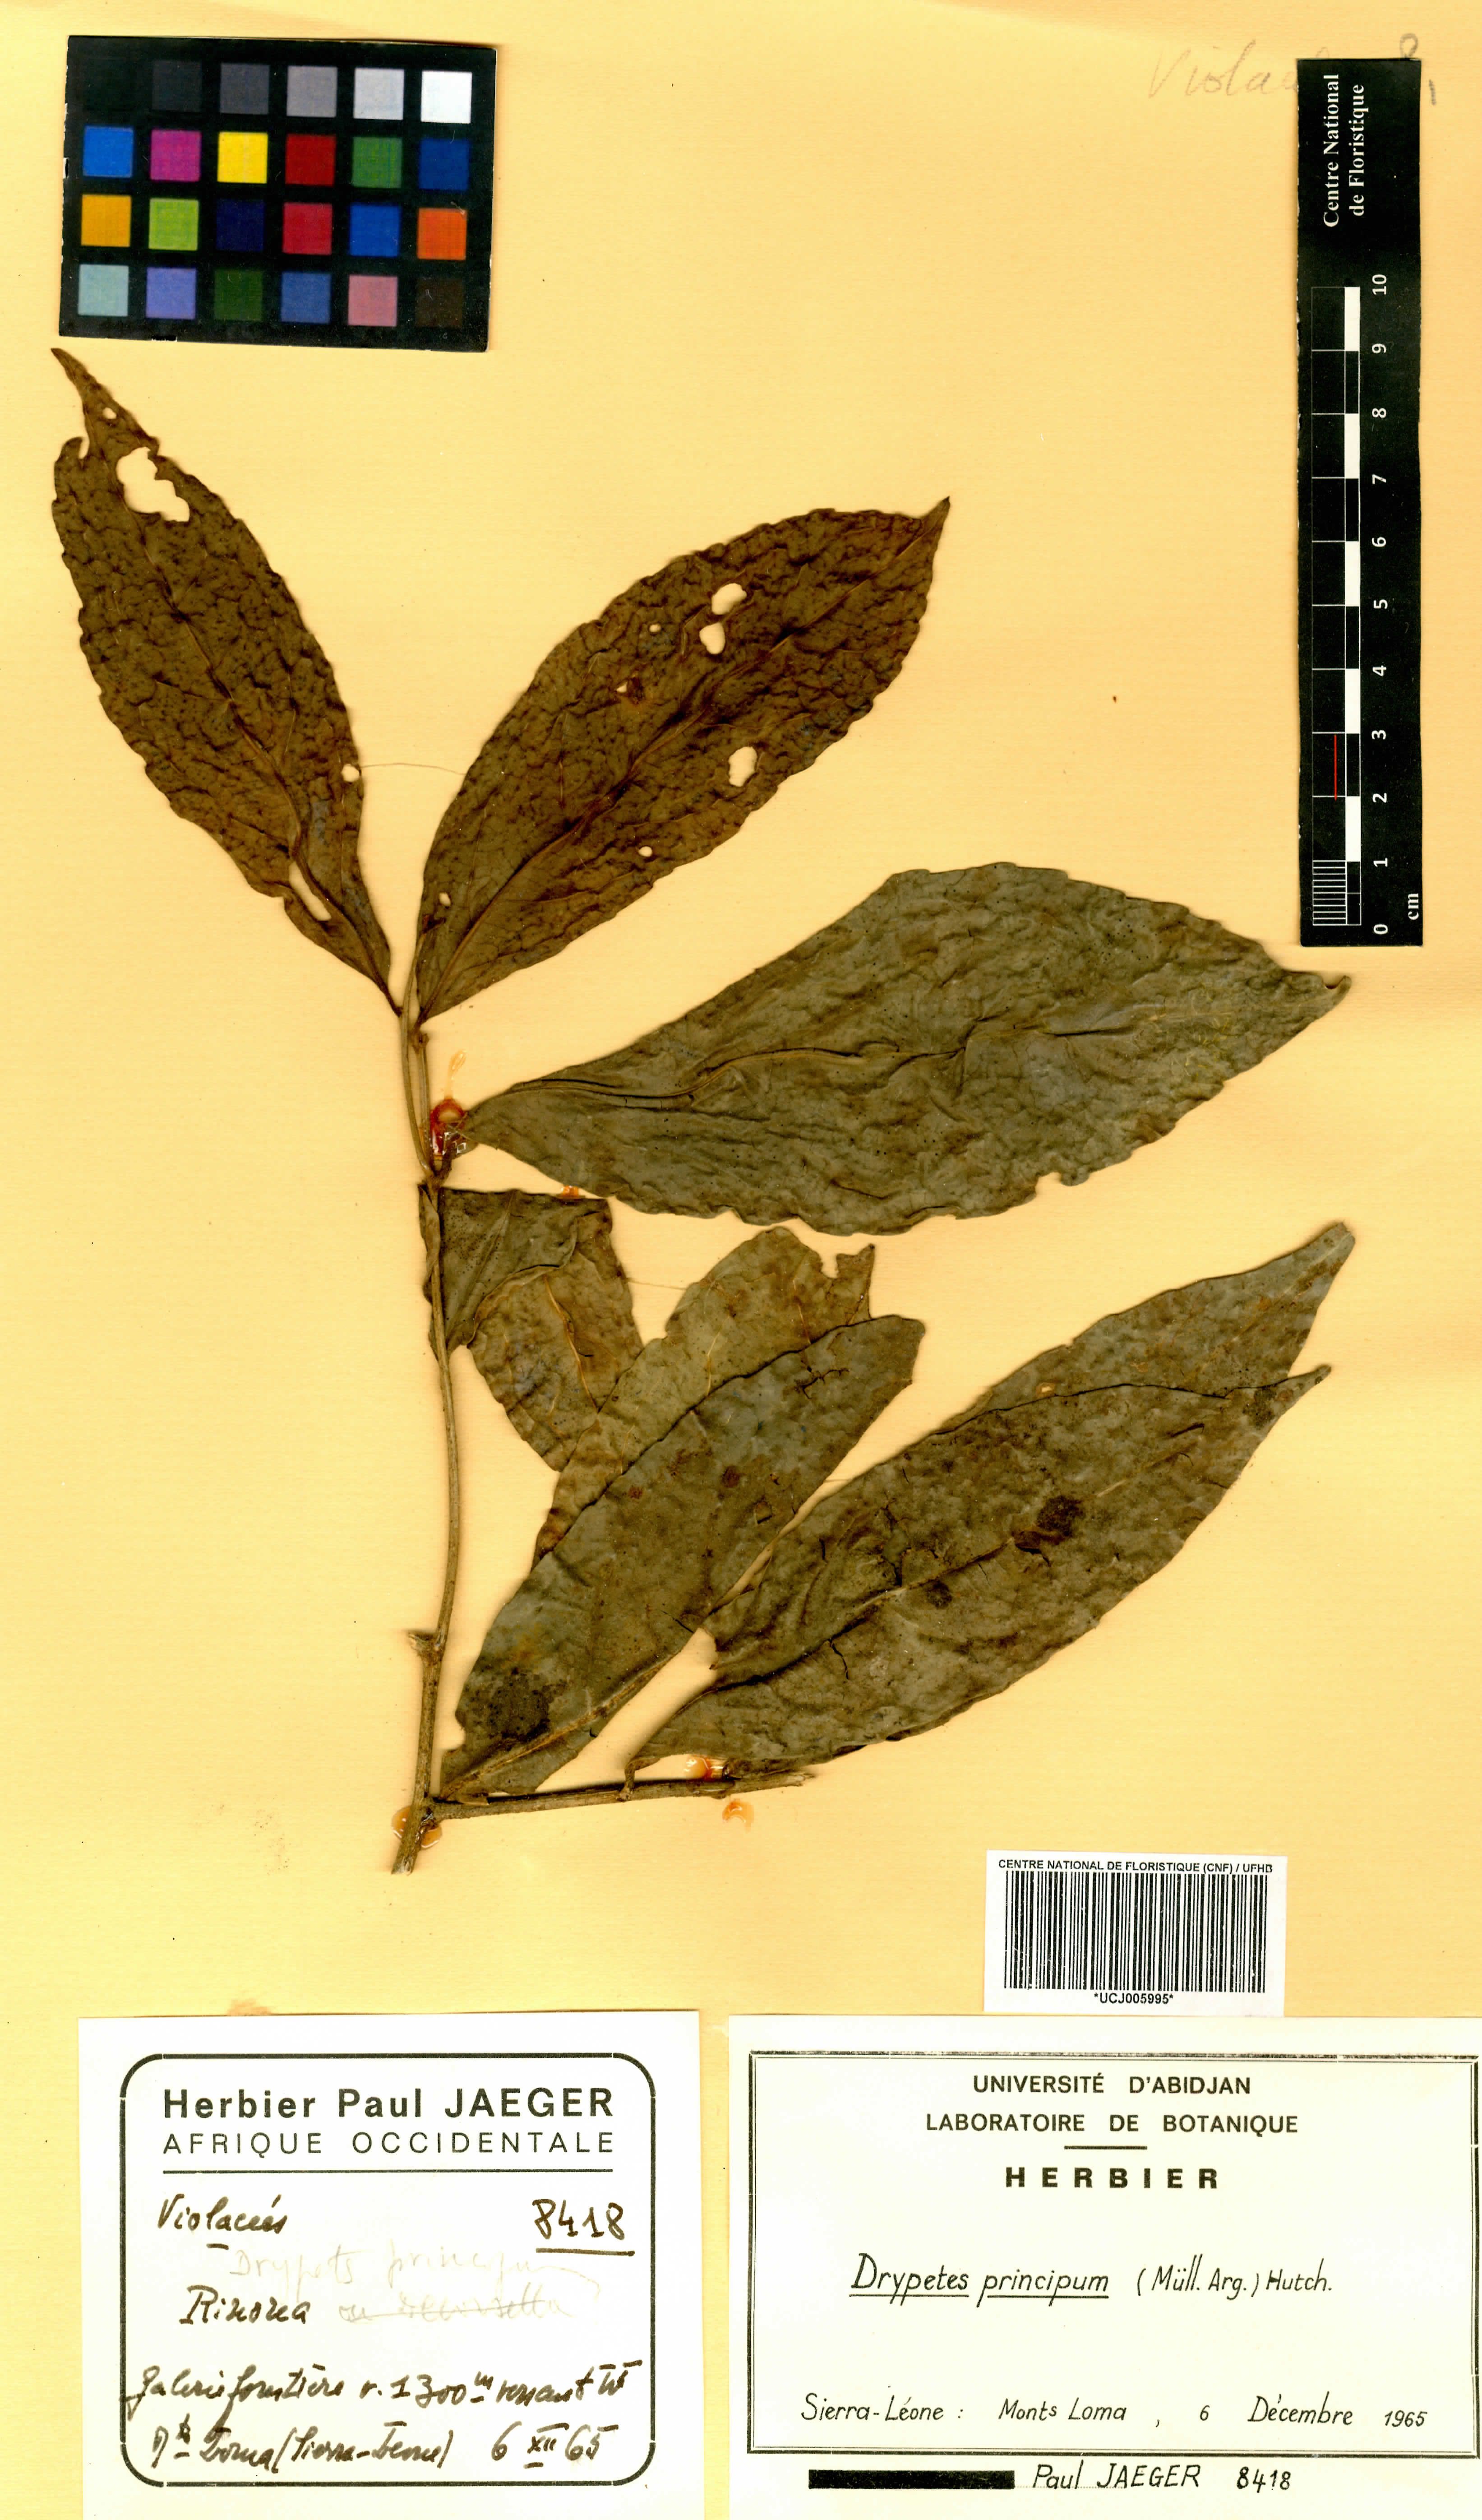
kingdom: Plantae
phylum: Tracheophyta
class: Magnoliopsida
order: Malpighiales
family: Putranjivaceae
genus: Drypetes
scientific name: Drypetes principum
